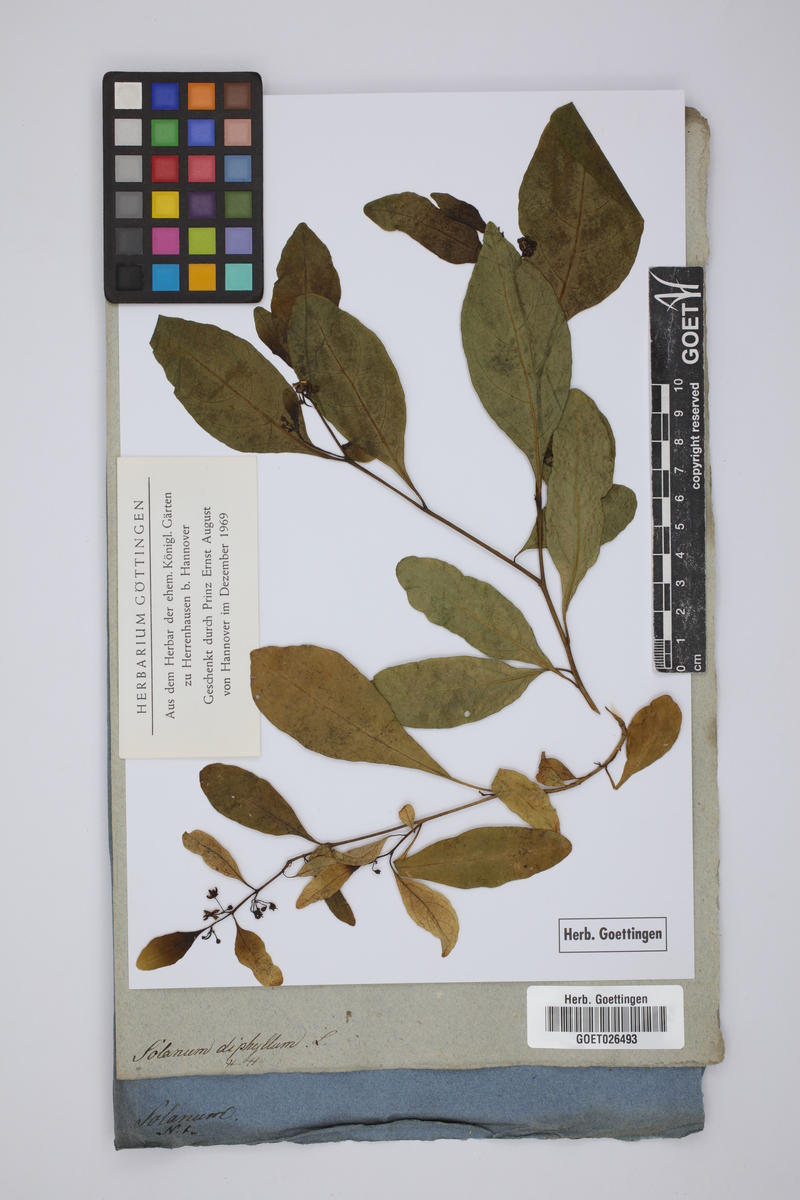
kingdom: Plantae
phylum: Tracheophyta
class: Magnoliopsida
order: Solanales
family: Solanaceae
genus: Solanum
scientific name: Solanum diphyllum
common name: Twoleaf nightshade
